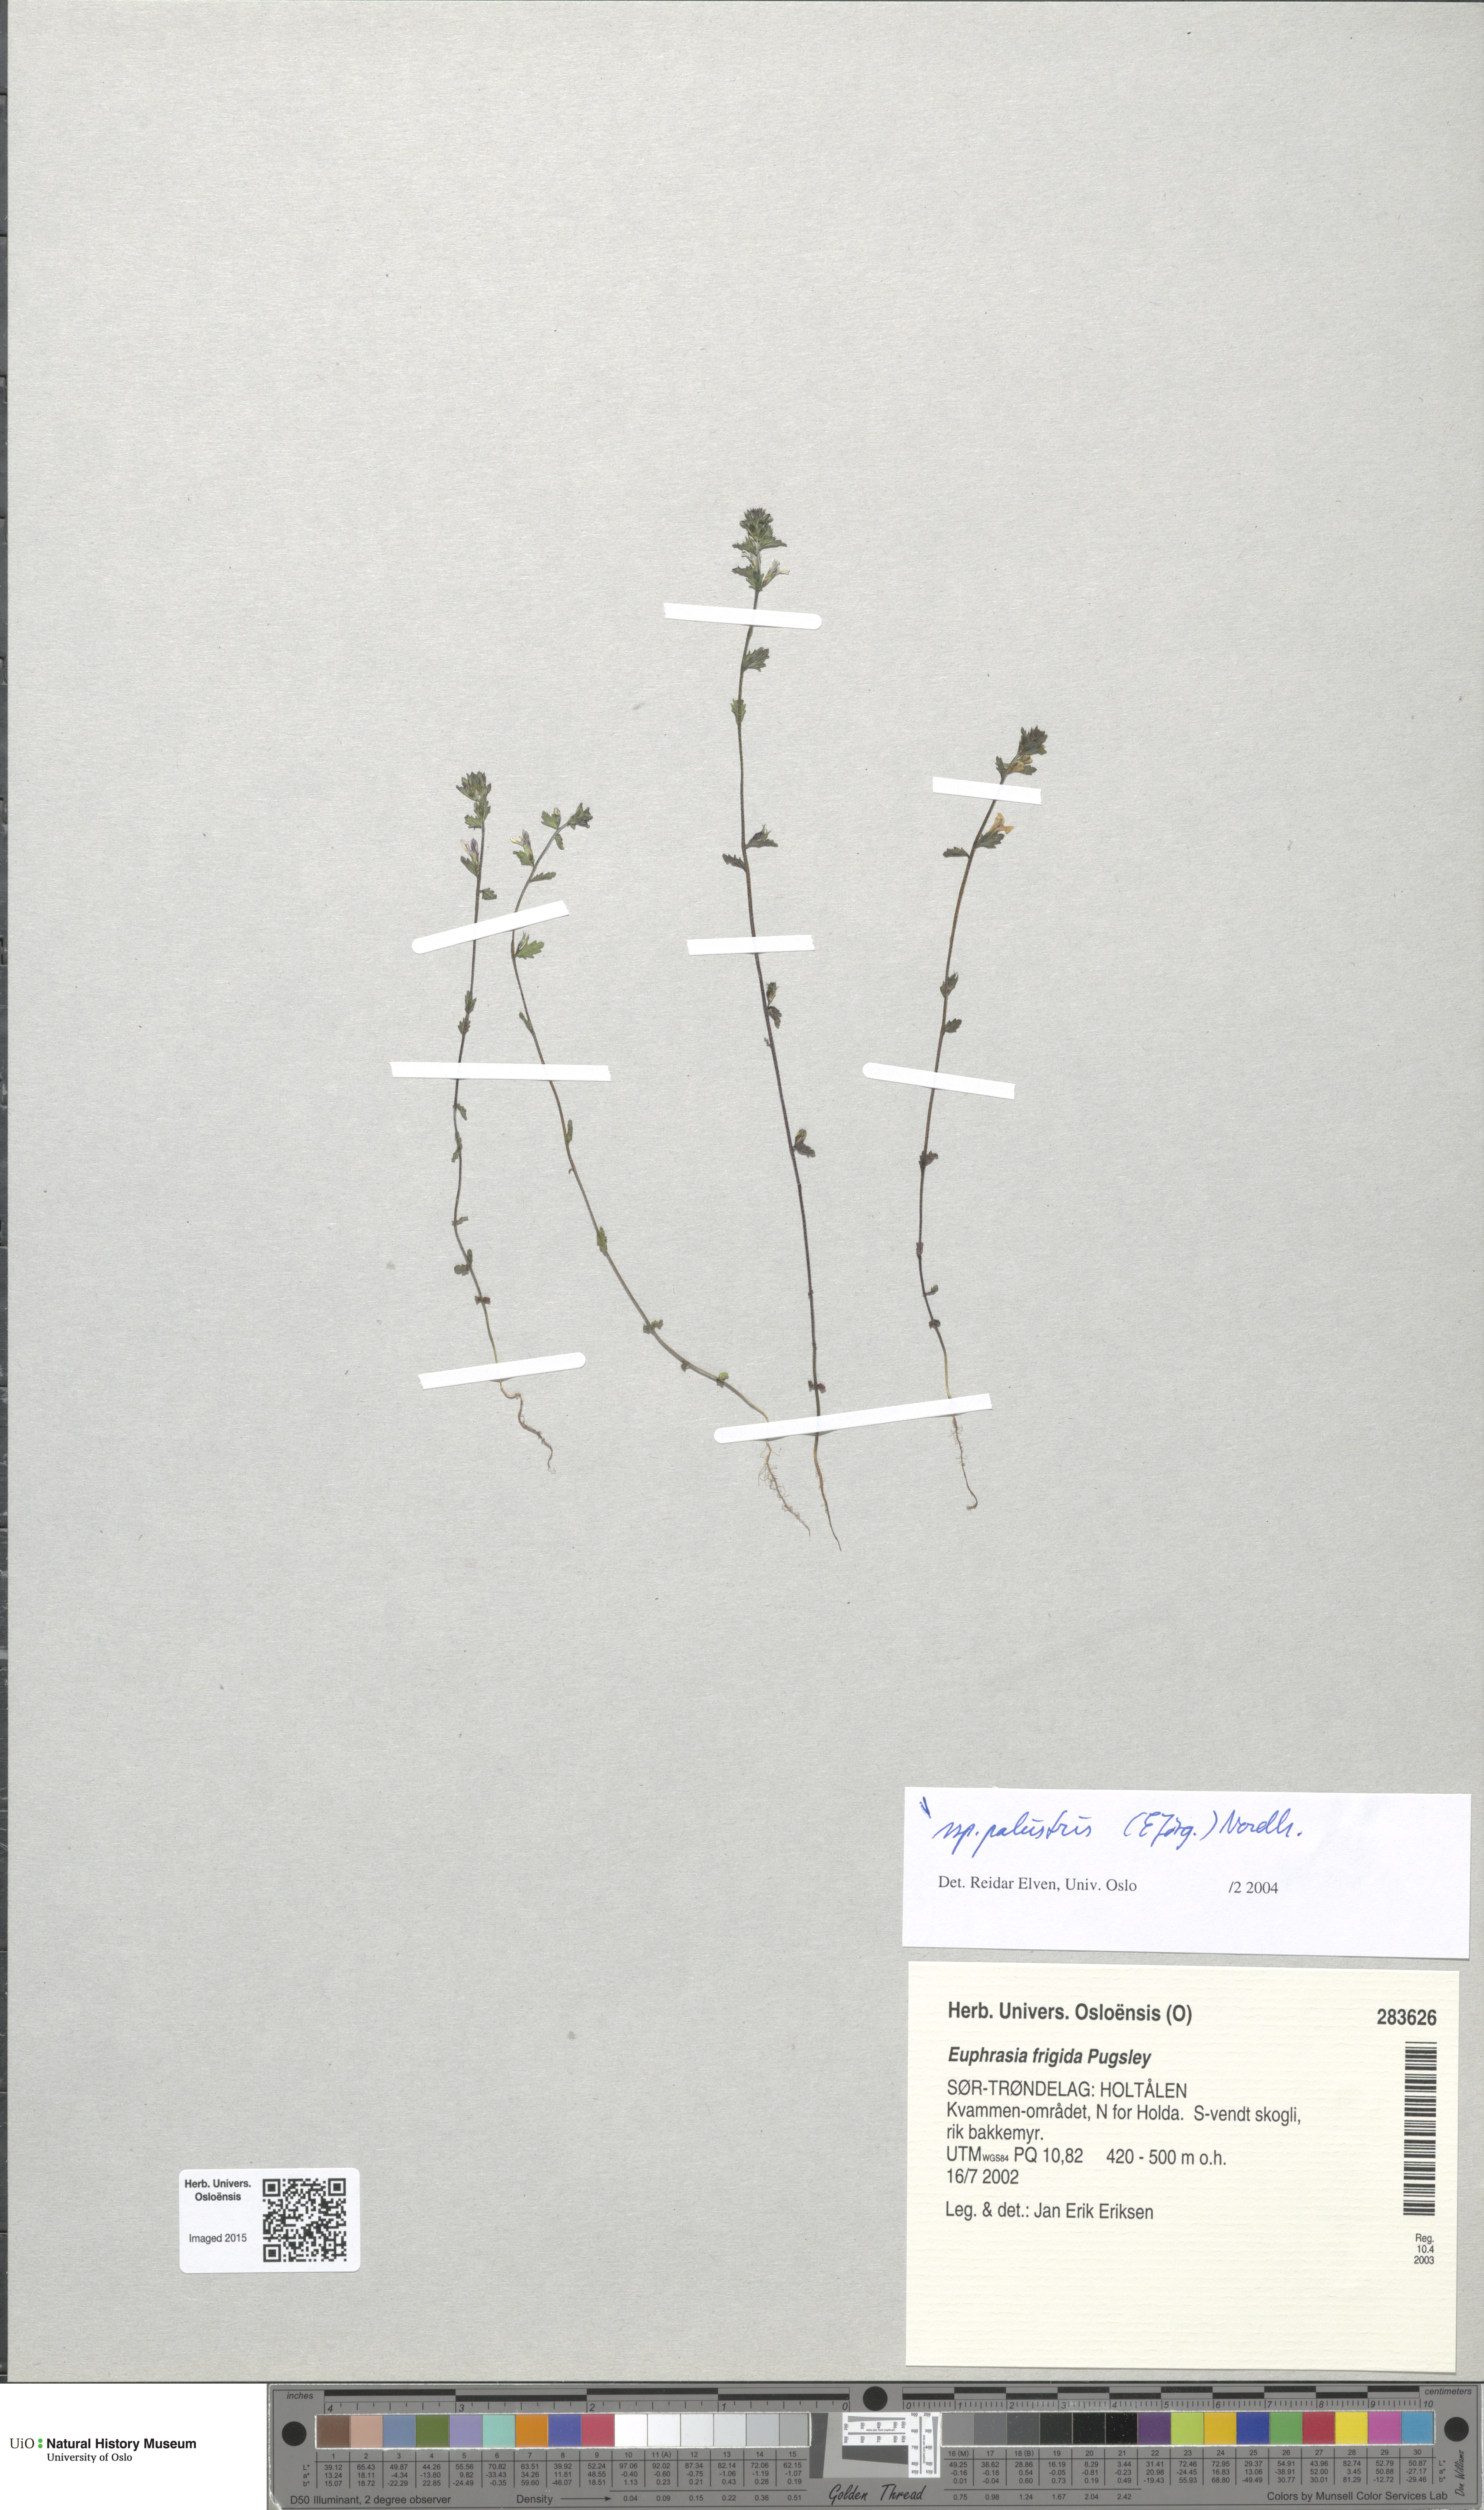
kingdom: Plantae
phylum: Tracheophyta
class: Magnoliopsida
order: Lamiales
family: Orobanchaceae
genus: Euphrasia
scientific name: Euphrasia wettsteinii
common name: Wettstein's eyebright
